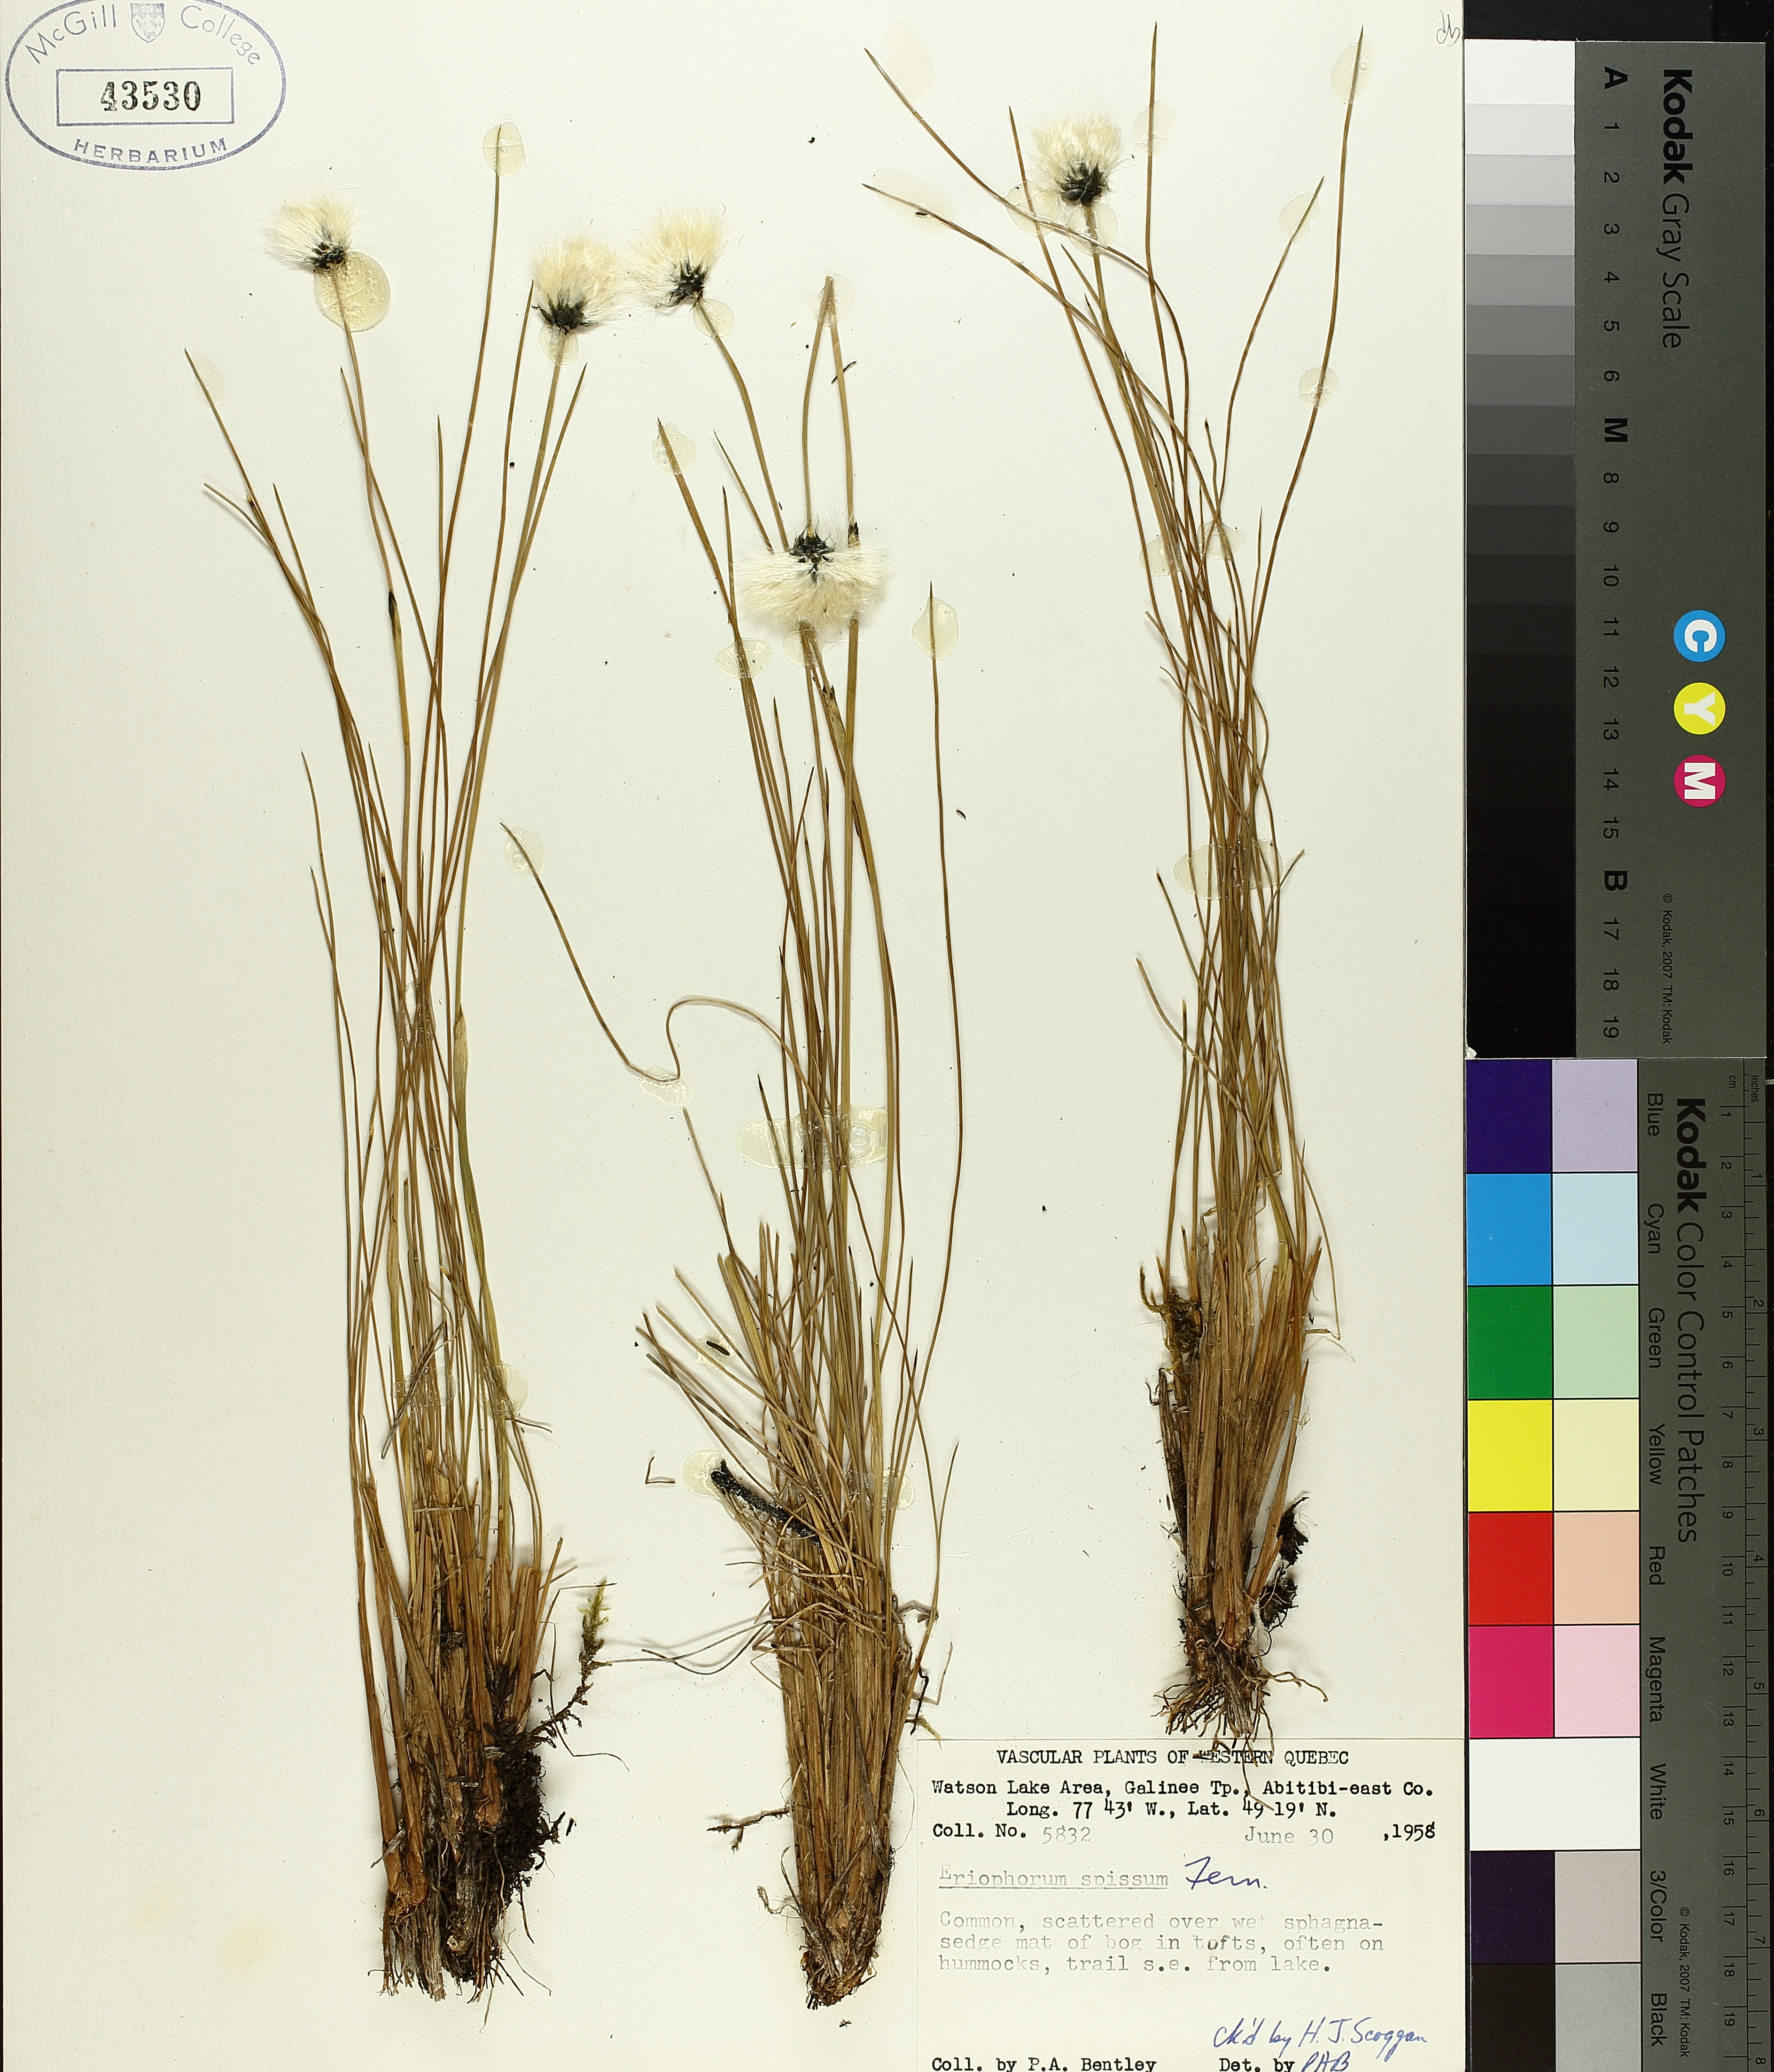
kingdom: Plantae
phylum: Tracheophyta
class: Liliopsida
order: Poales
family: Cyperaceae
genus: Eriophorum
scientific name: Eriophorum vaginatum
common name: Hare's-tail cottongrass
